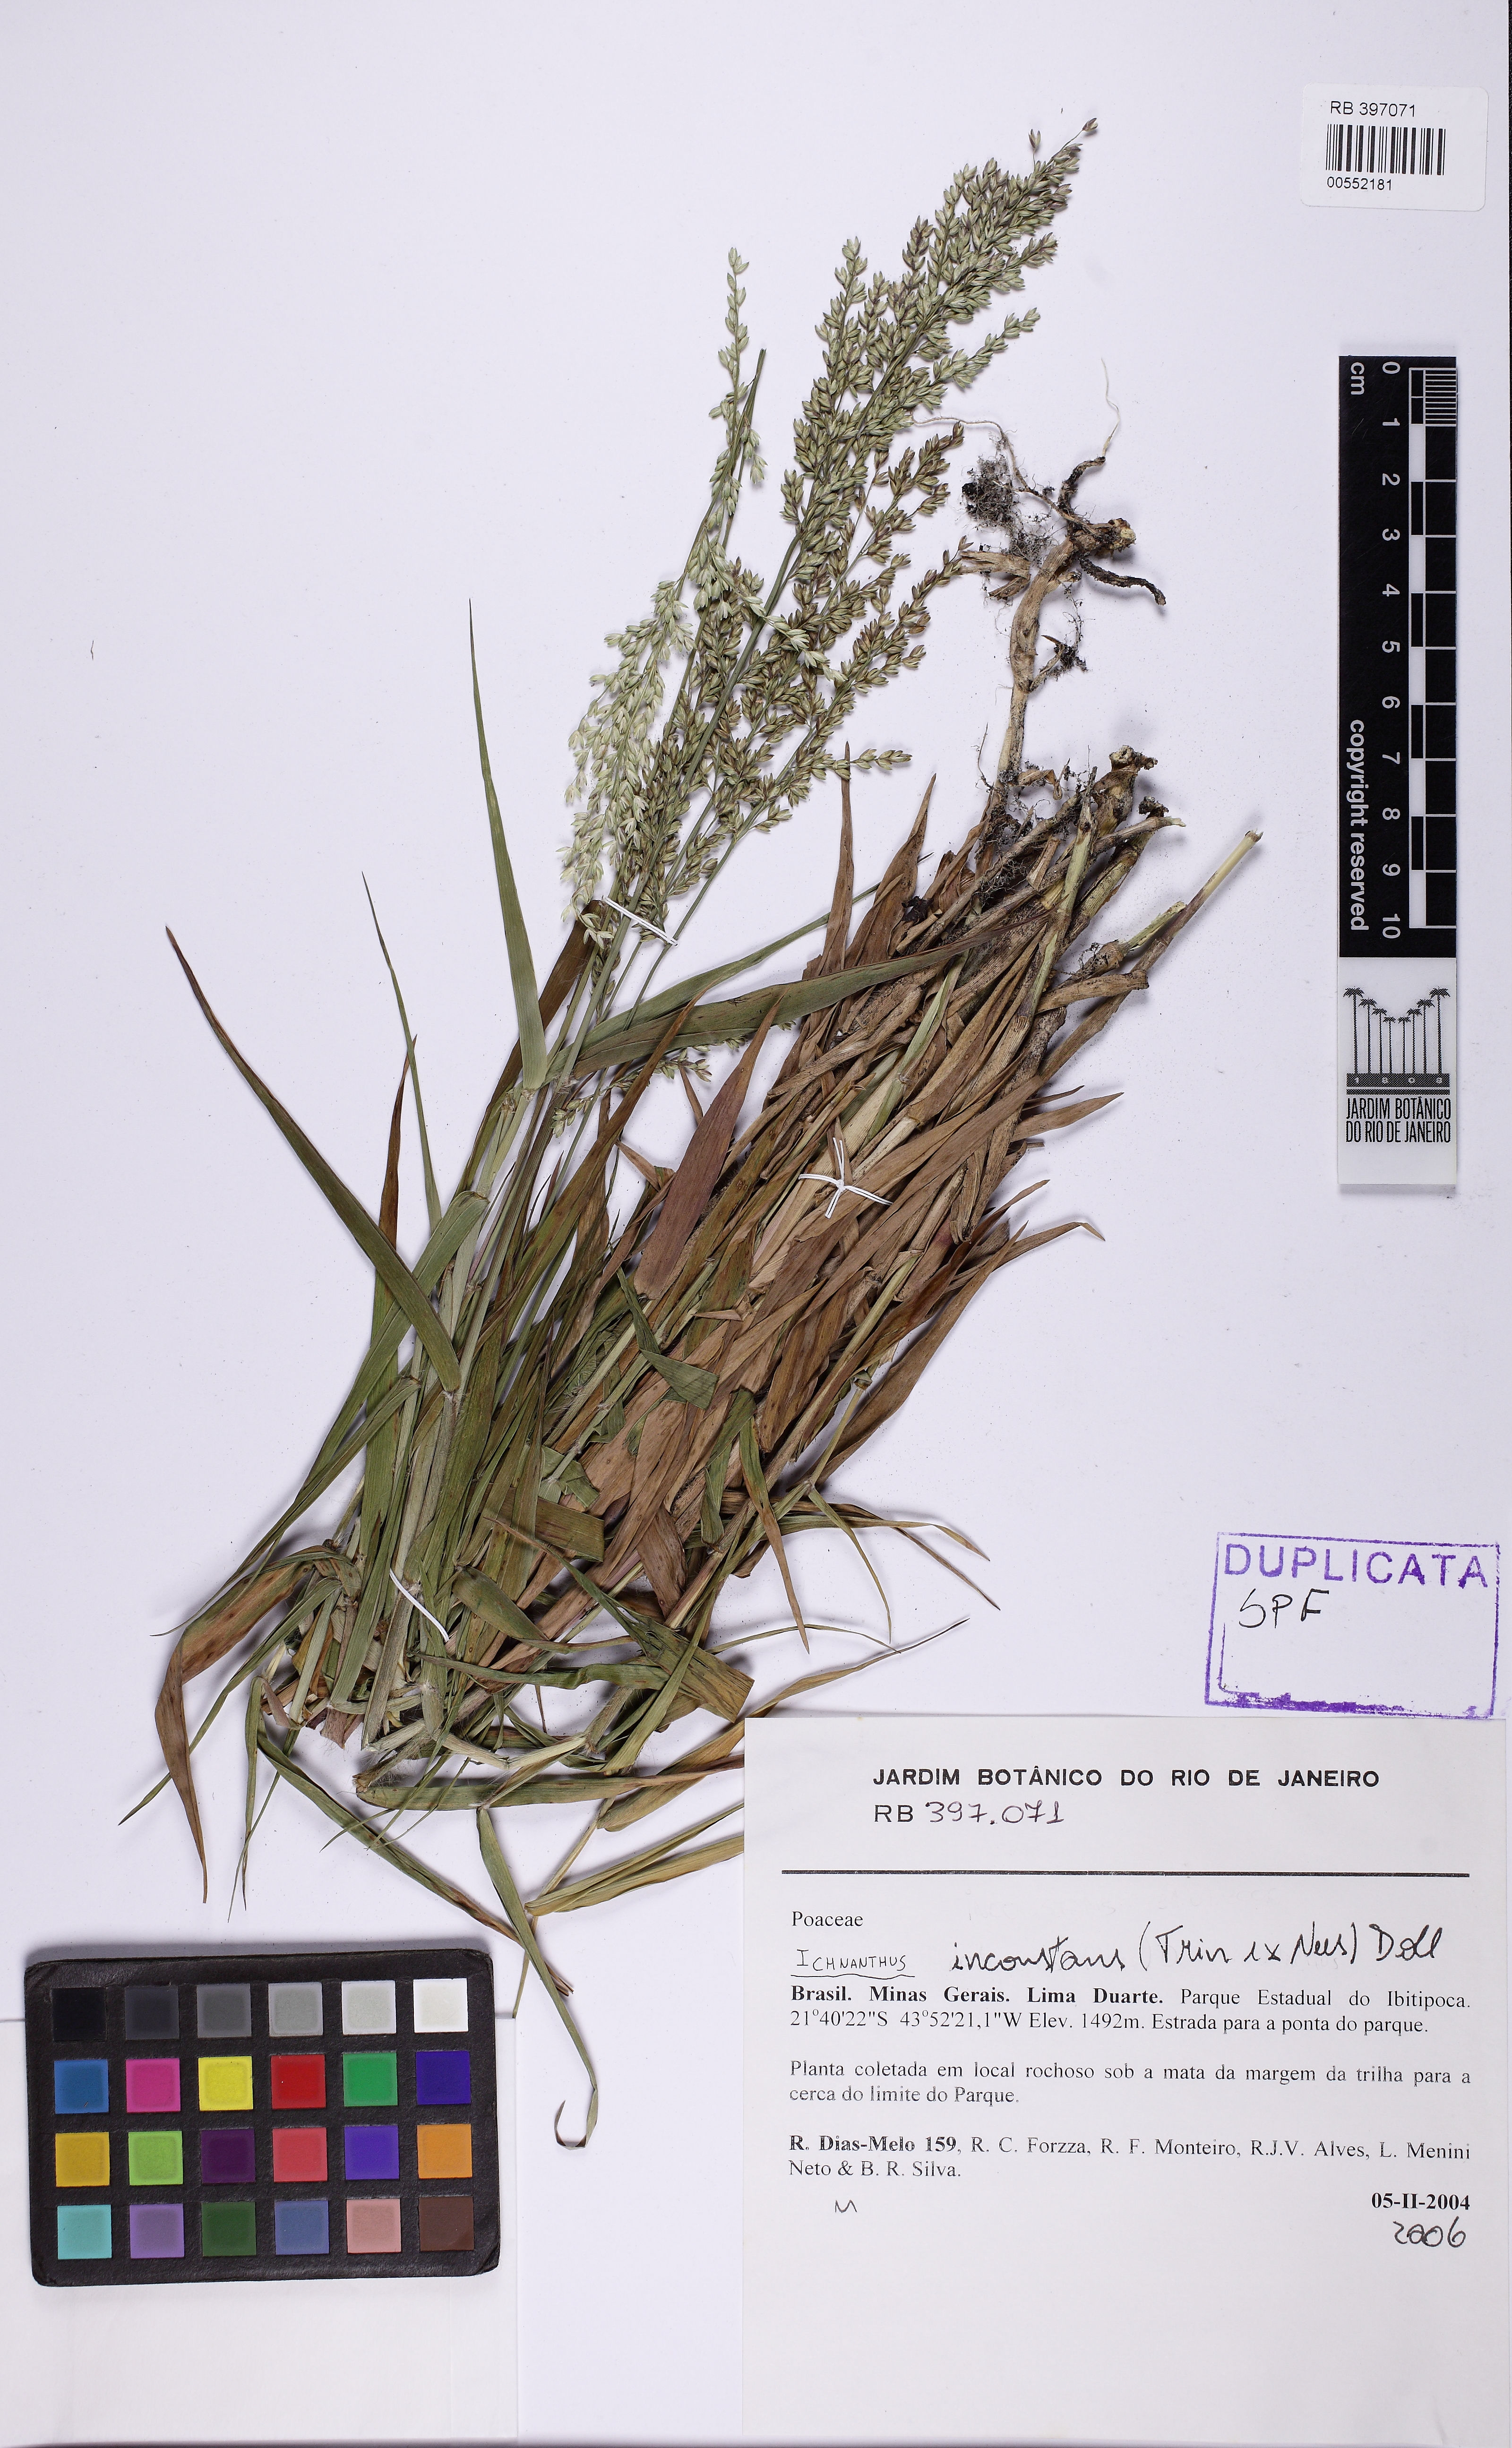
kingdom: Plantae
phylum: Tracheophyta
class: Liliopsida
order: Poales
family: Poaceae
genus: Ichnanthus
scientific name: Ichnanthus inconstans
